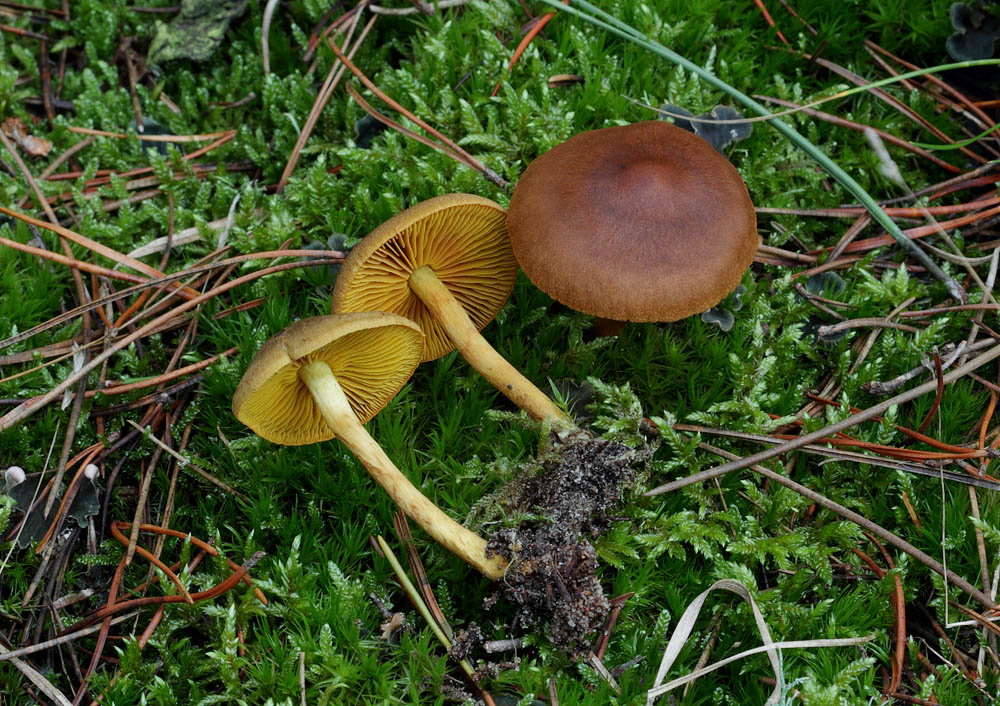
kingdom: Fungi
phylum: Basidiomycota
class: Agaricomycetes
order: Agaricales
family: Cortinariaceae
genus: Cortinarius
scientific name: Cortinarius
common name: gulbladet slørhat
